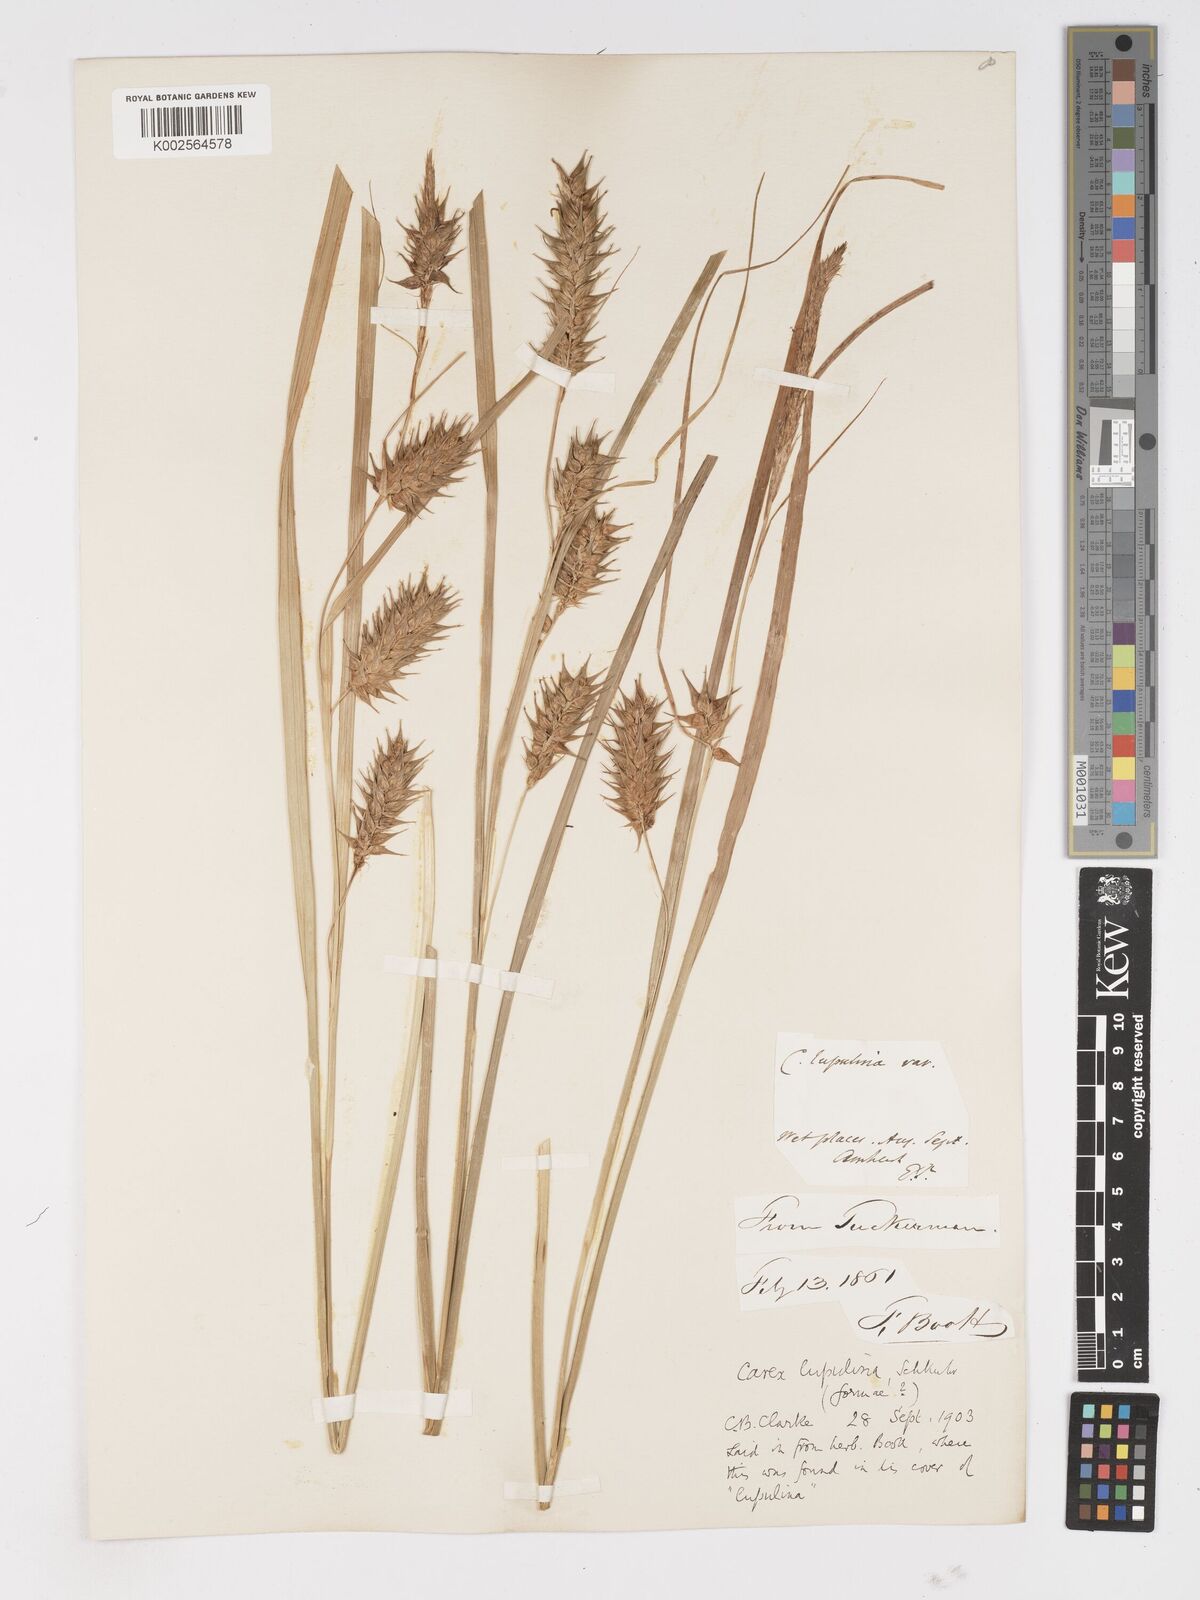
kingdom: Plantae
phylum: Tracheophyta
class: Liliopsida
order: Poales
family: Cyperaceae
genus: Carex
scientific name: Carex lupulina
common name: Hop sedge
